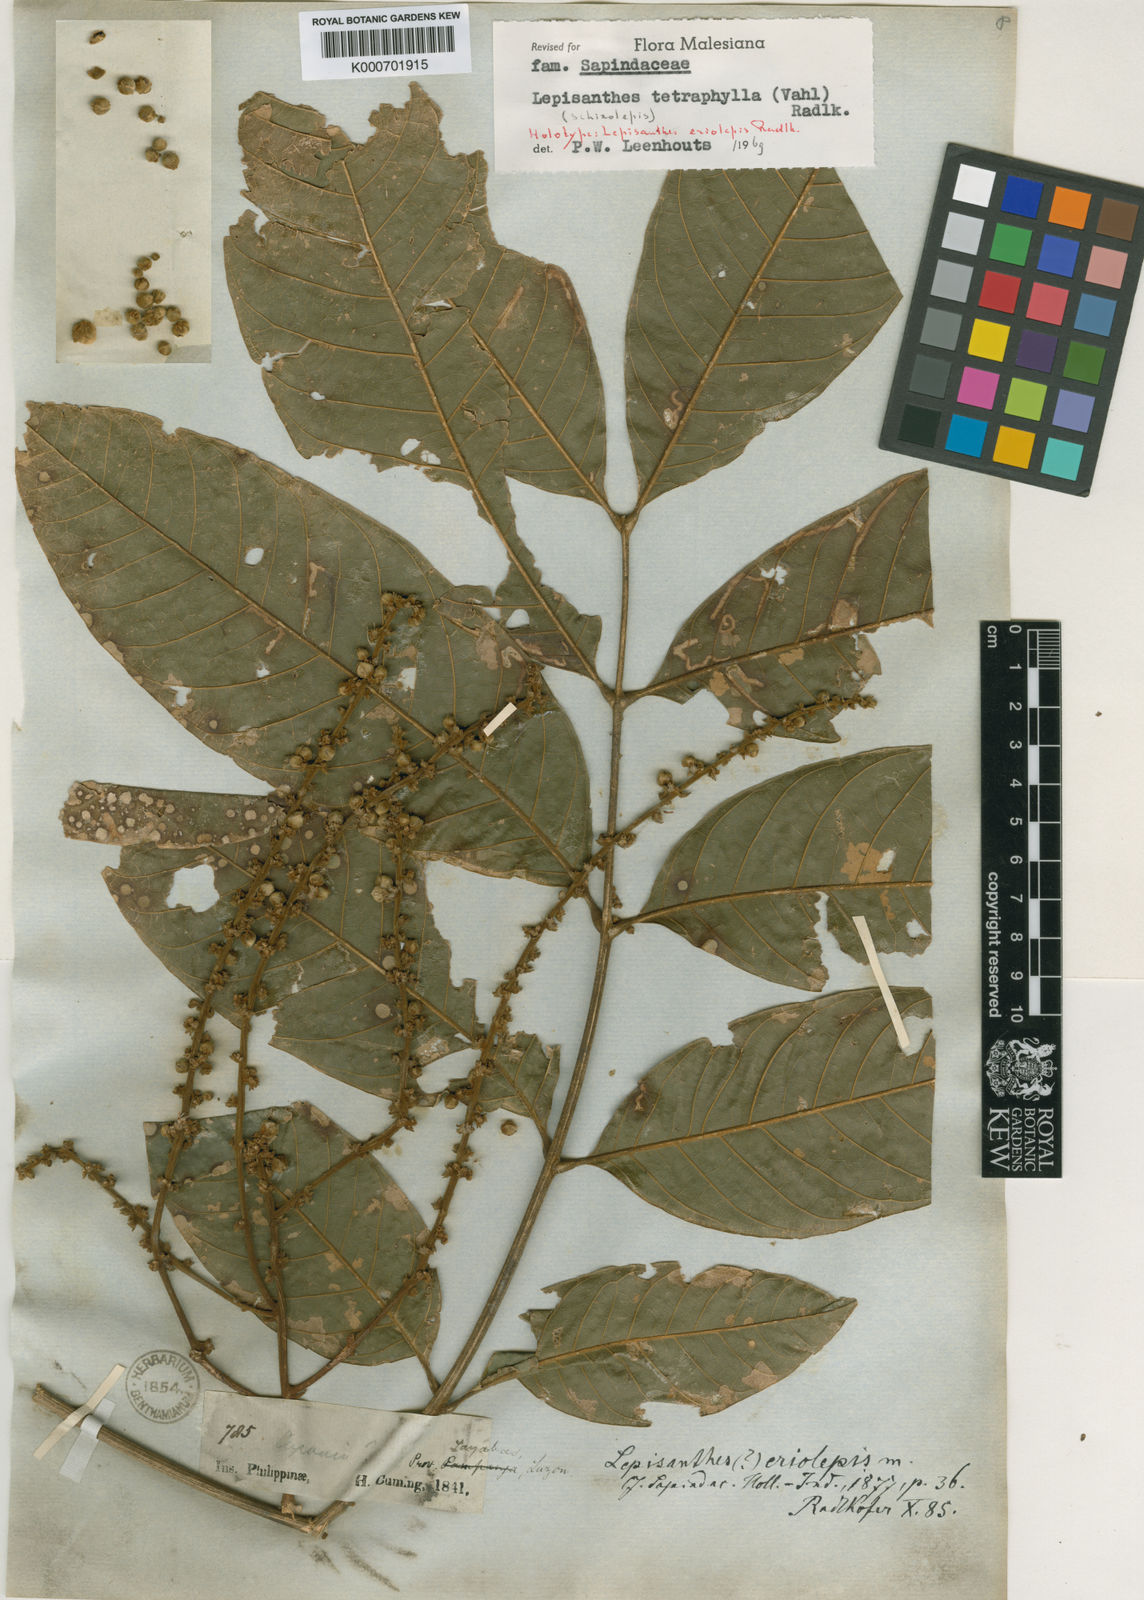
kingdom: Plantae
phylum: Tracheophyta
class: Magnoliopsida
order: Sapindales
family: Sapindaceae
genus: Lepisanthes
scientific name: Lepisanthes tetraphylla
